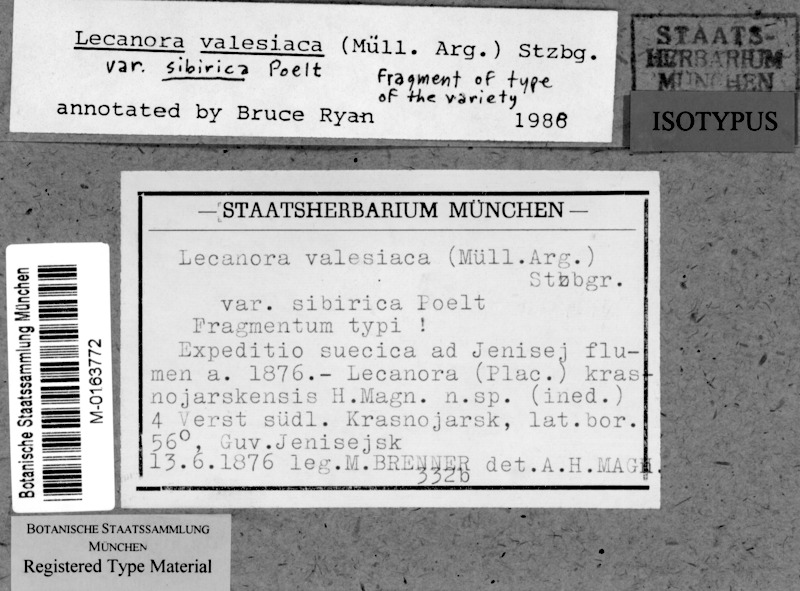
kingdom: Fungi
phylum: Ascomycota
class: Lecanoromycetes
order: Lecanorales
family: Lecanoraceae
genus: Lecanora
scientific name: Lecanora valesiaca
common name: Valois rim-lichen
